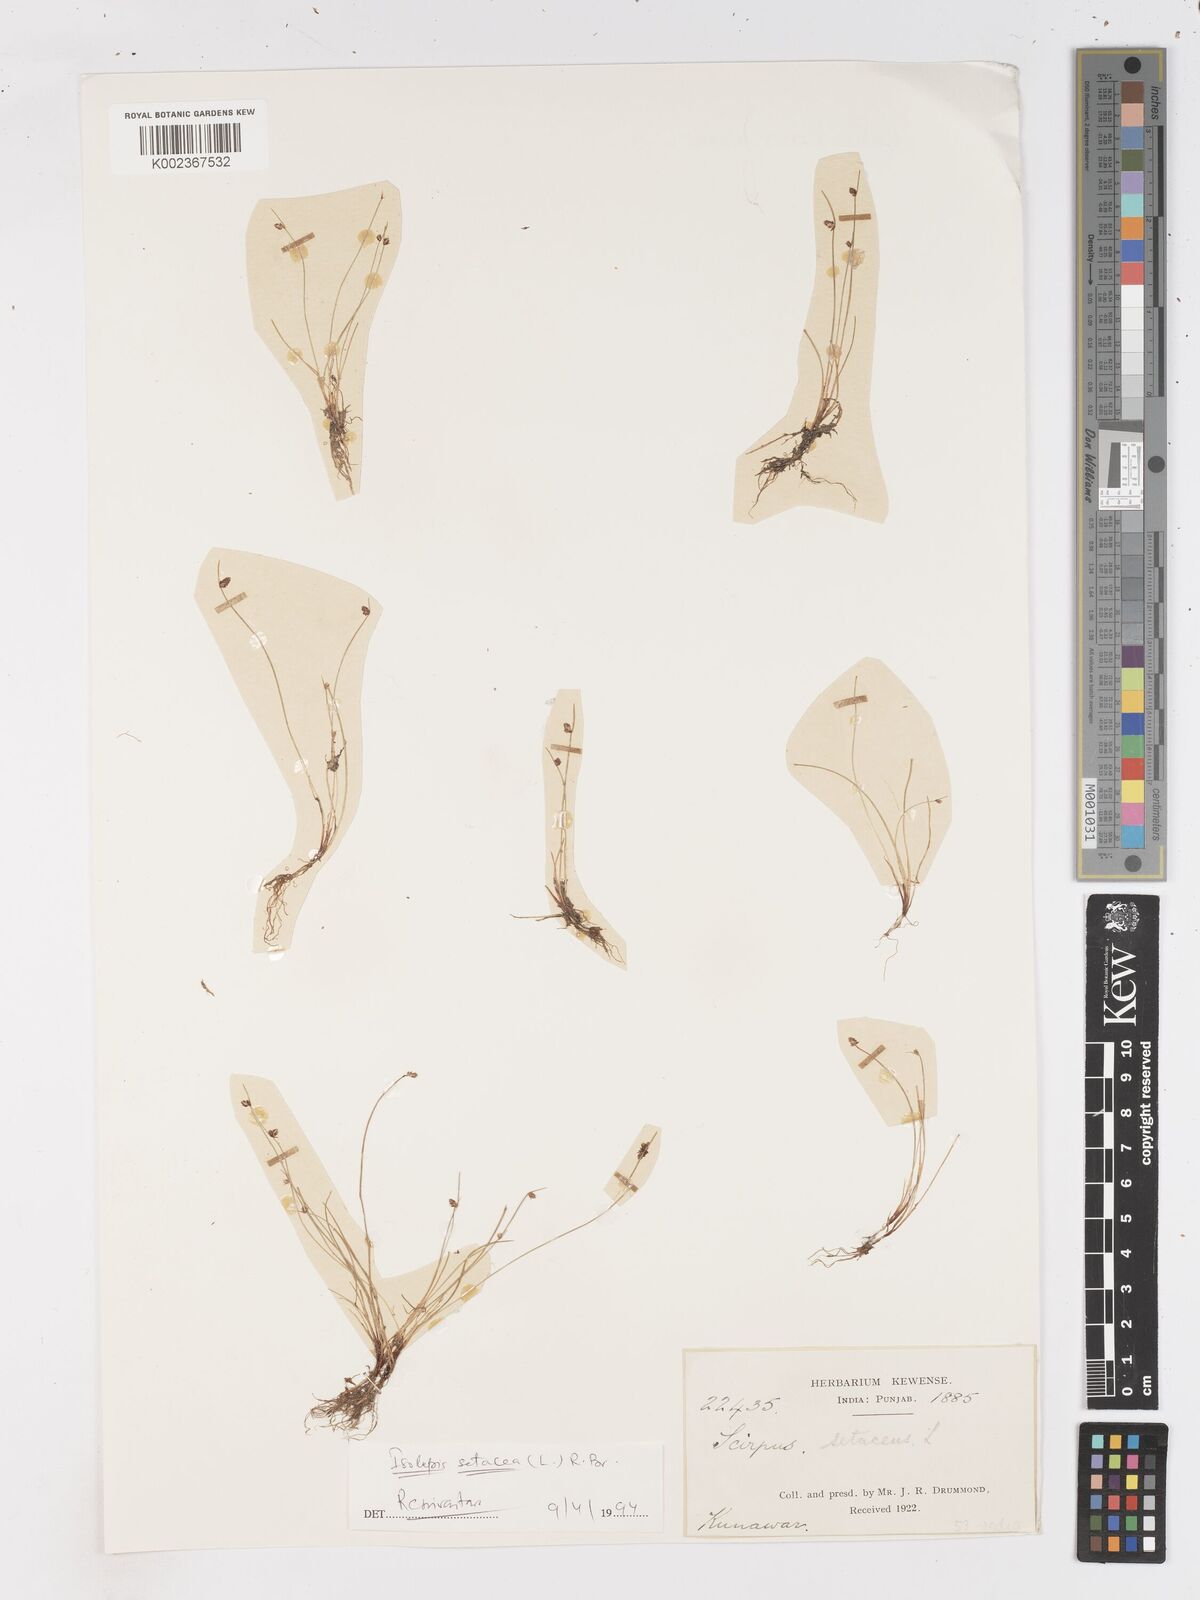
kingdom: Plantae
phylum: Tracheophyta
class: Liliopsida
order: Poales
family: Cyperaceae
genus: Isolepis
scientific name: Isolepis setacea
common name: Bristle club-rush
